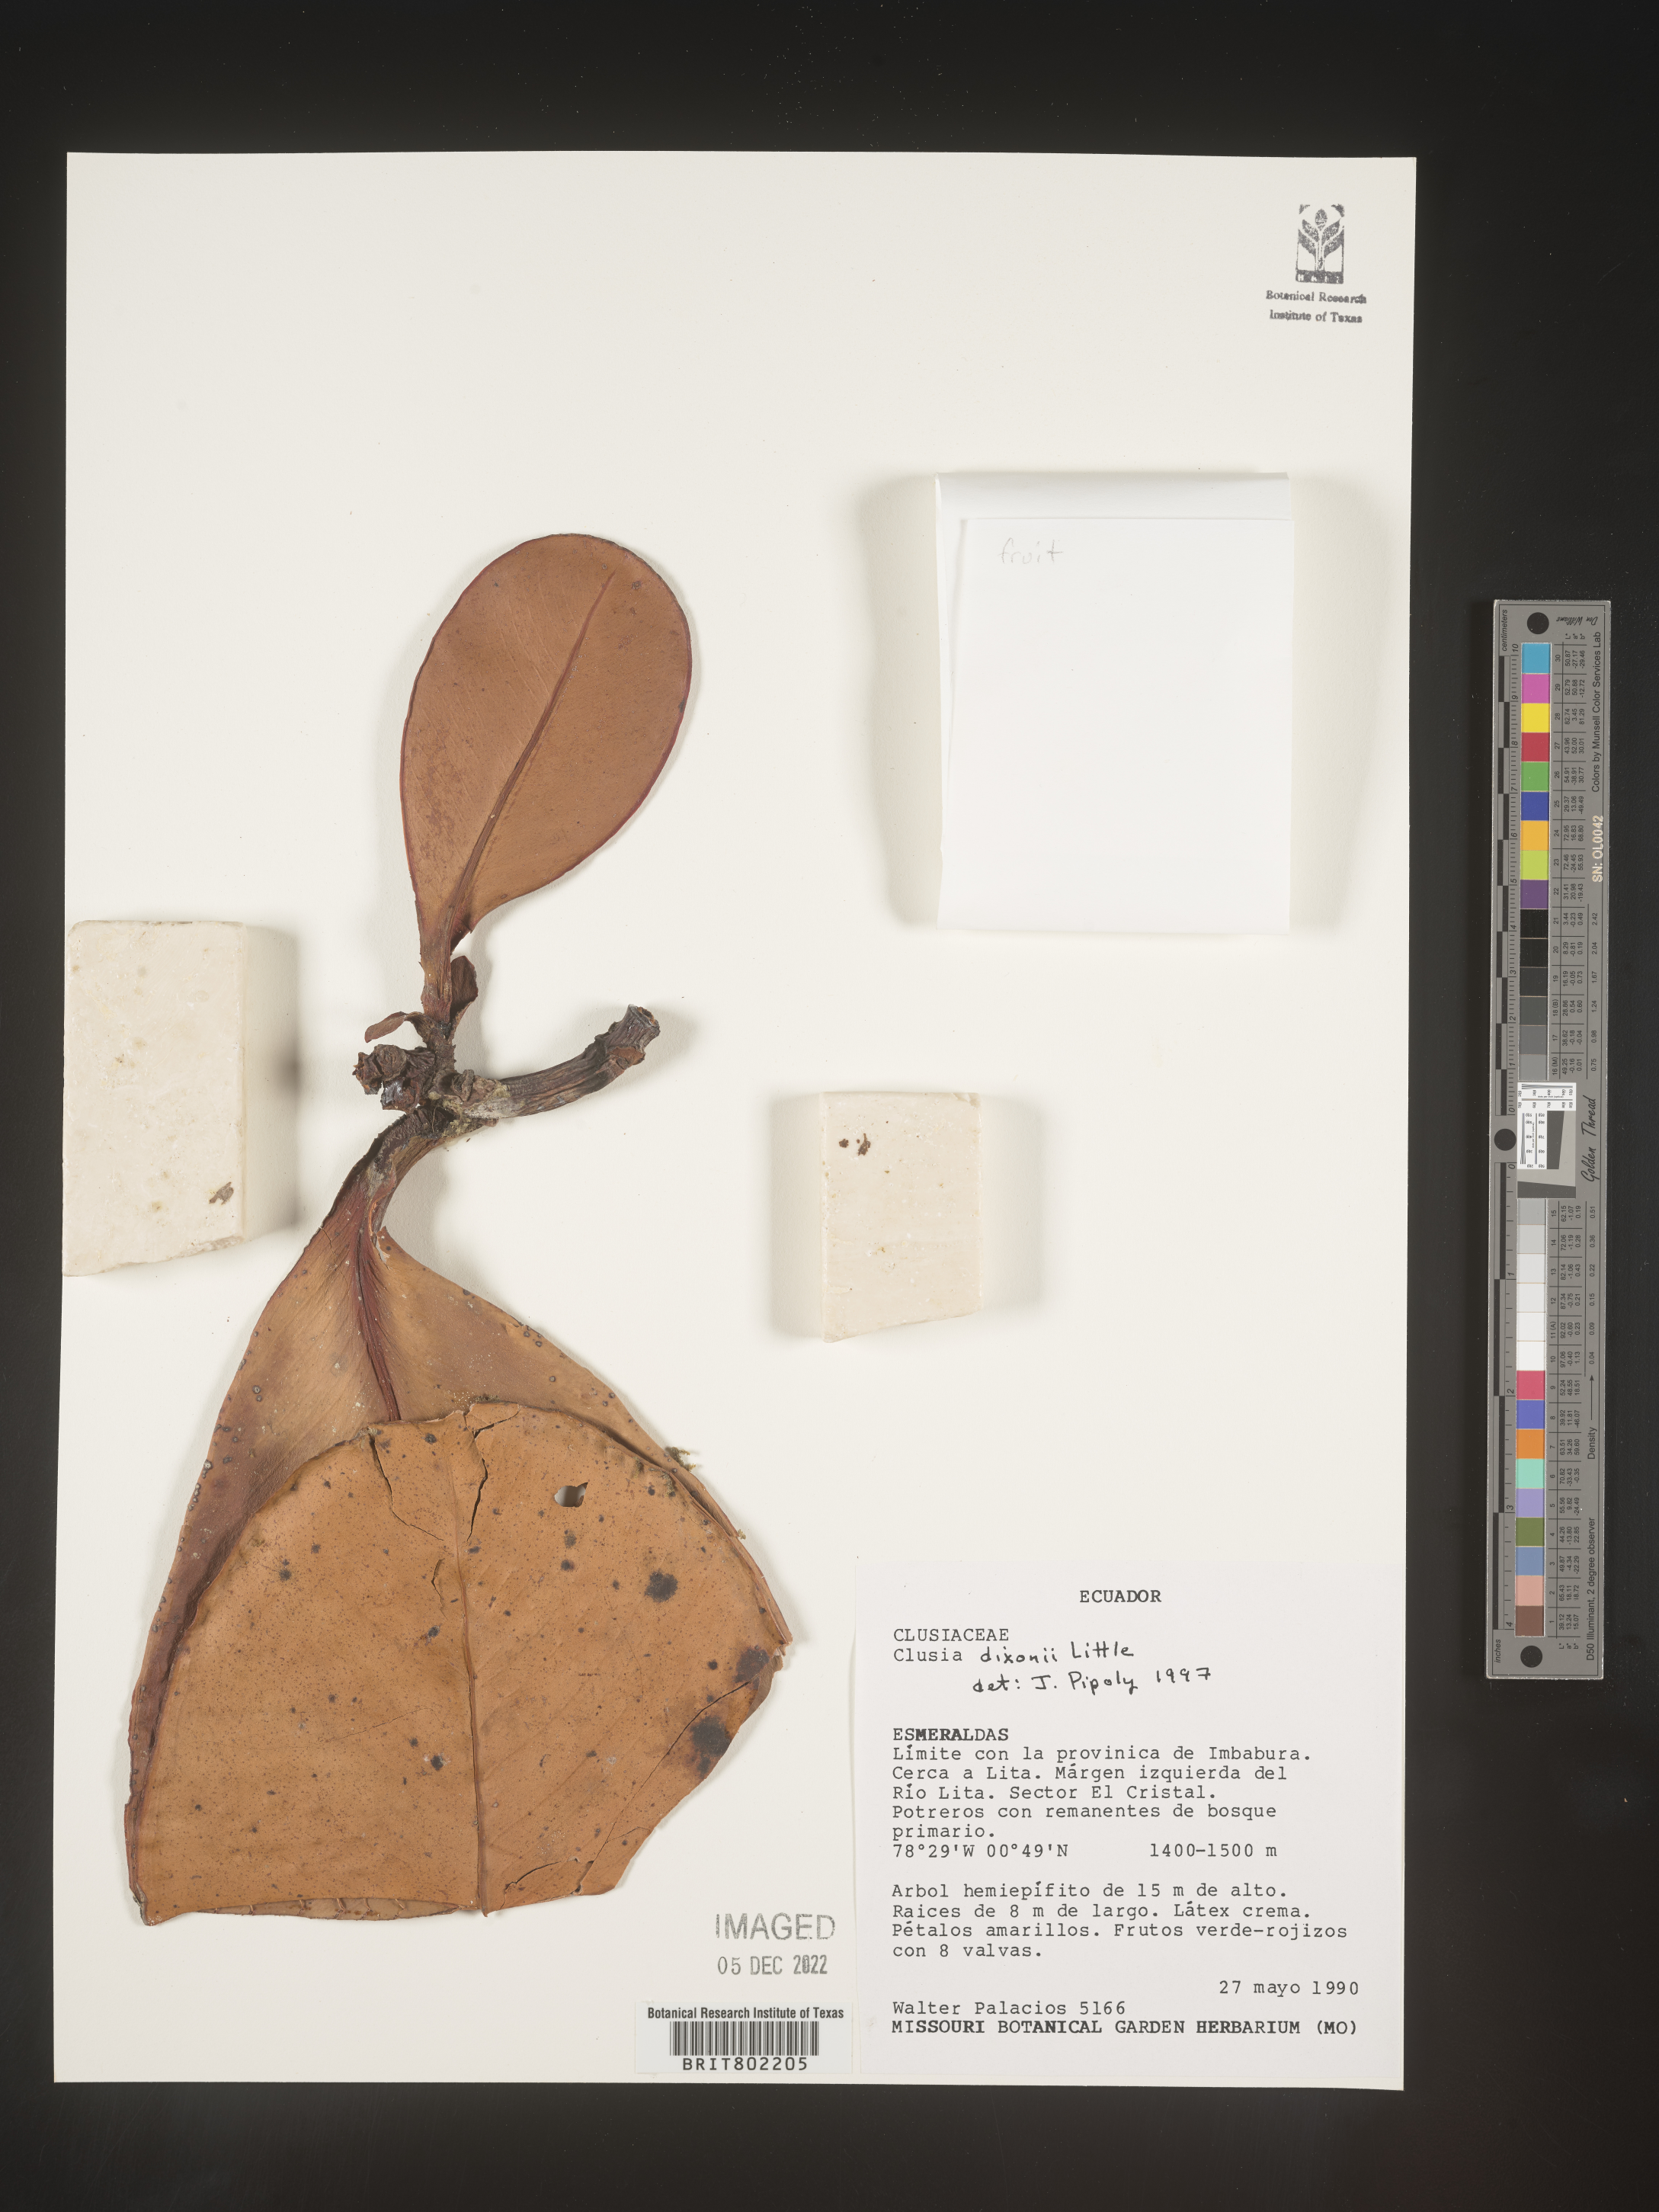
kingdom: Plantae
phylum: Tracheophyta
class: Magnoliopsida
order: Malpighiales
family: Clusiaceae
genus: Clusia
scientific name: Clusia
